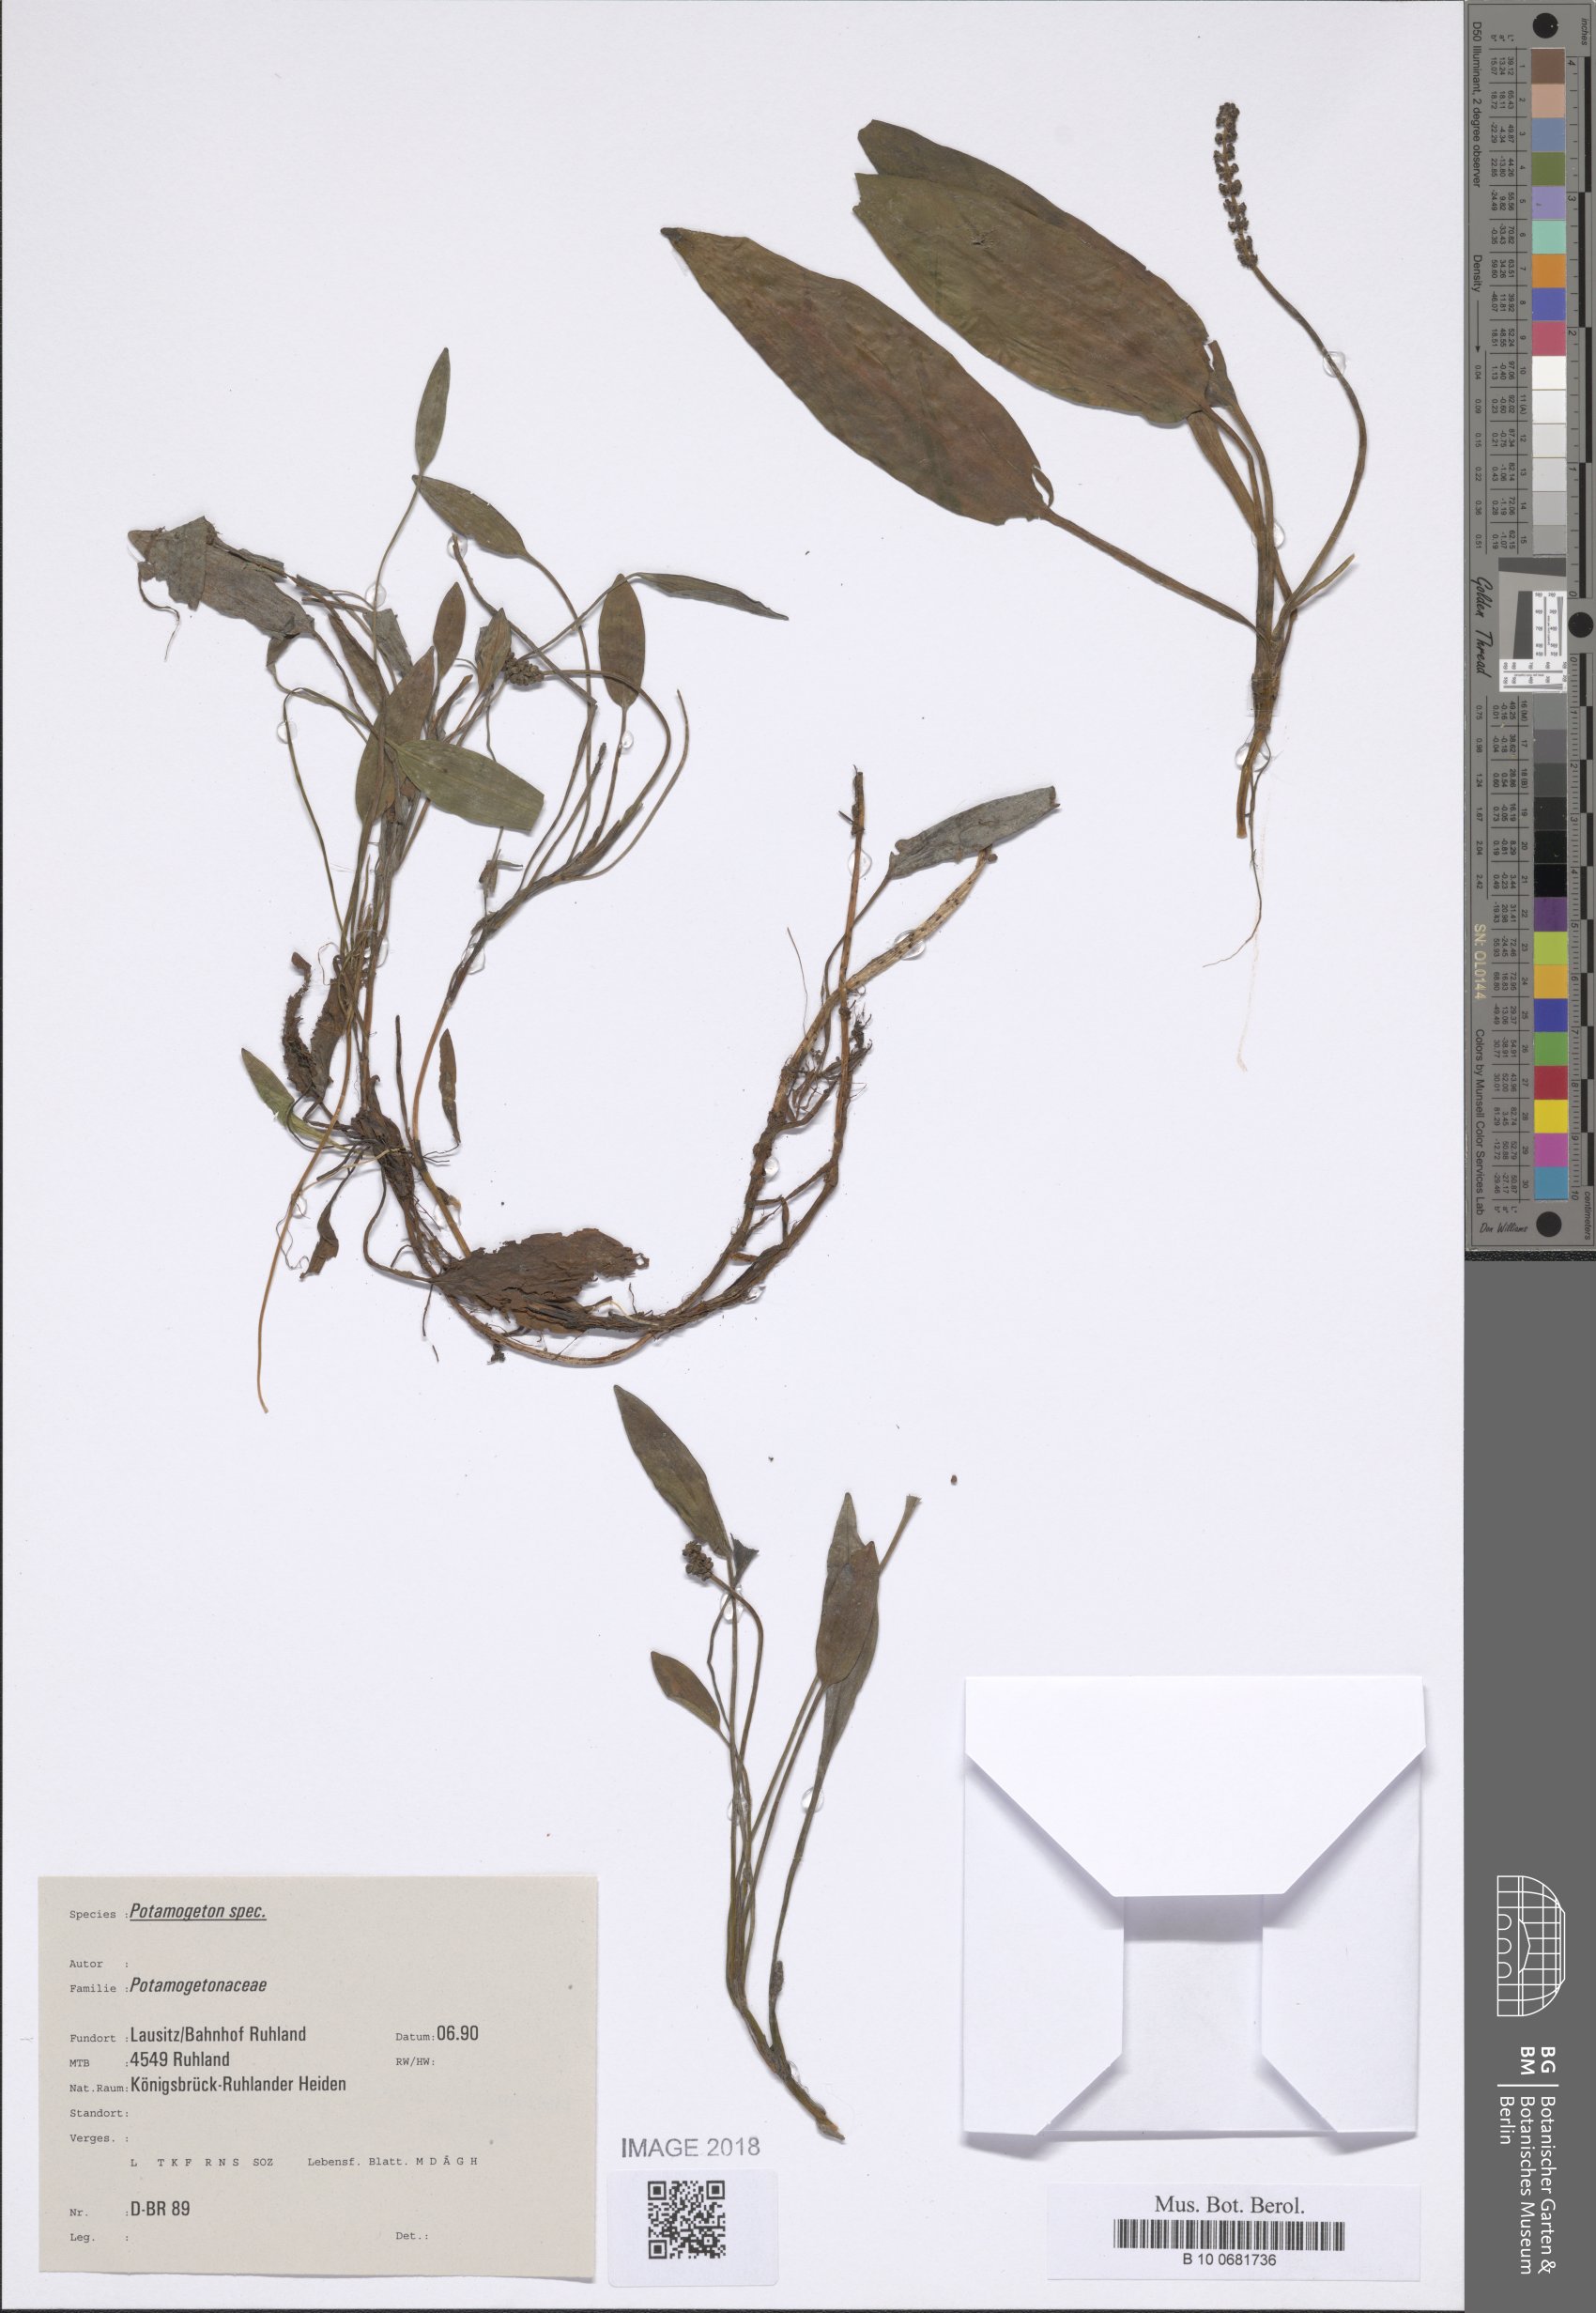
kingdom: Plantae
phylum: Tracheophyta
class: Liliopsida
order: Alismatales
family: Potamogetonaceae
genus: Potamogeton
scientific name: Potamogeton polygonifolius
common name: Bog pondweed
